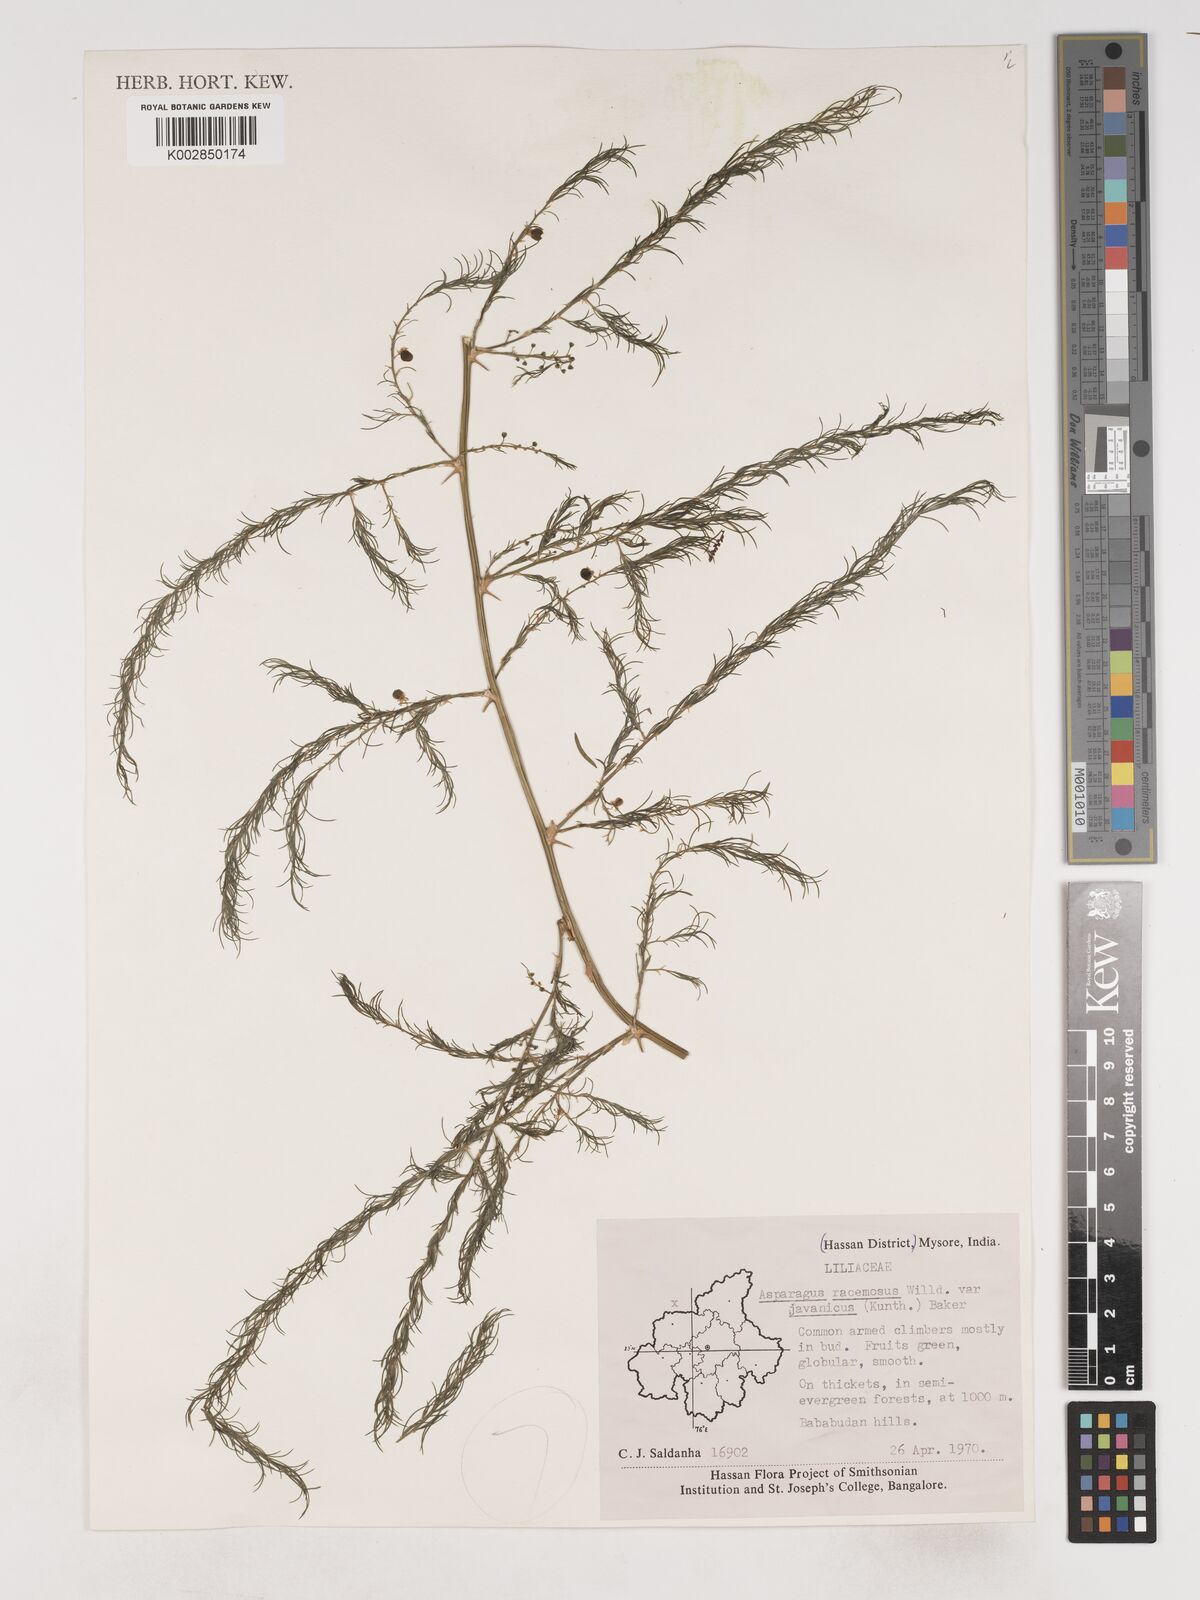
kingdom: Plantae
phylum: Tracheophyta
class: Liliopsida
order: Asparagales
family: Asparagaceae
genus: Asparagus
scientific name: Asparagus racemosus
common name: Asparagus-fern
